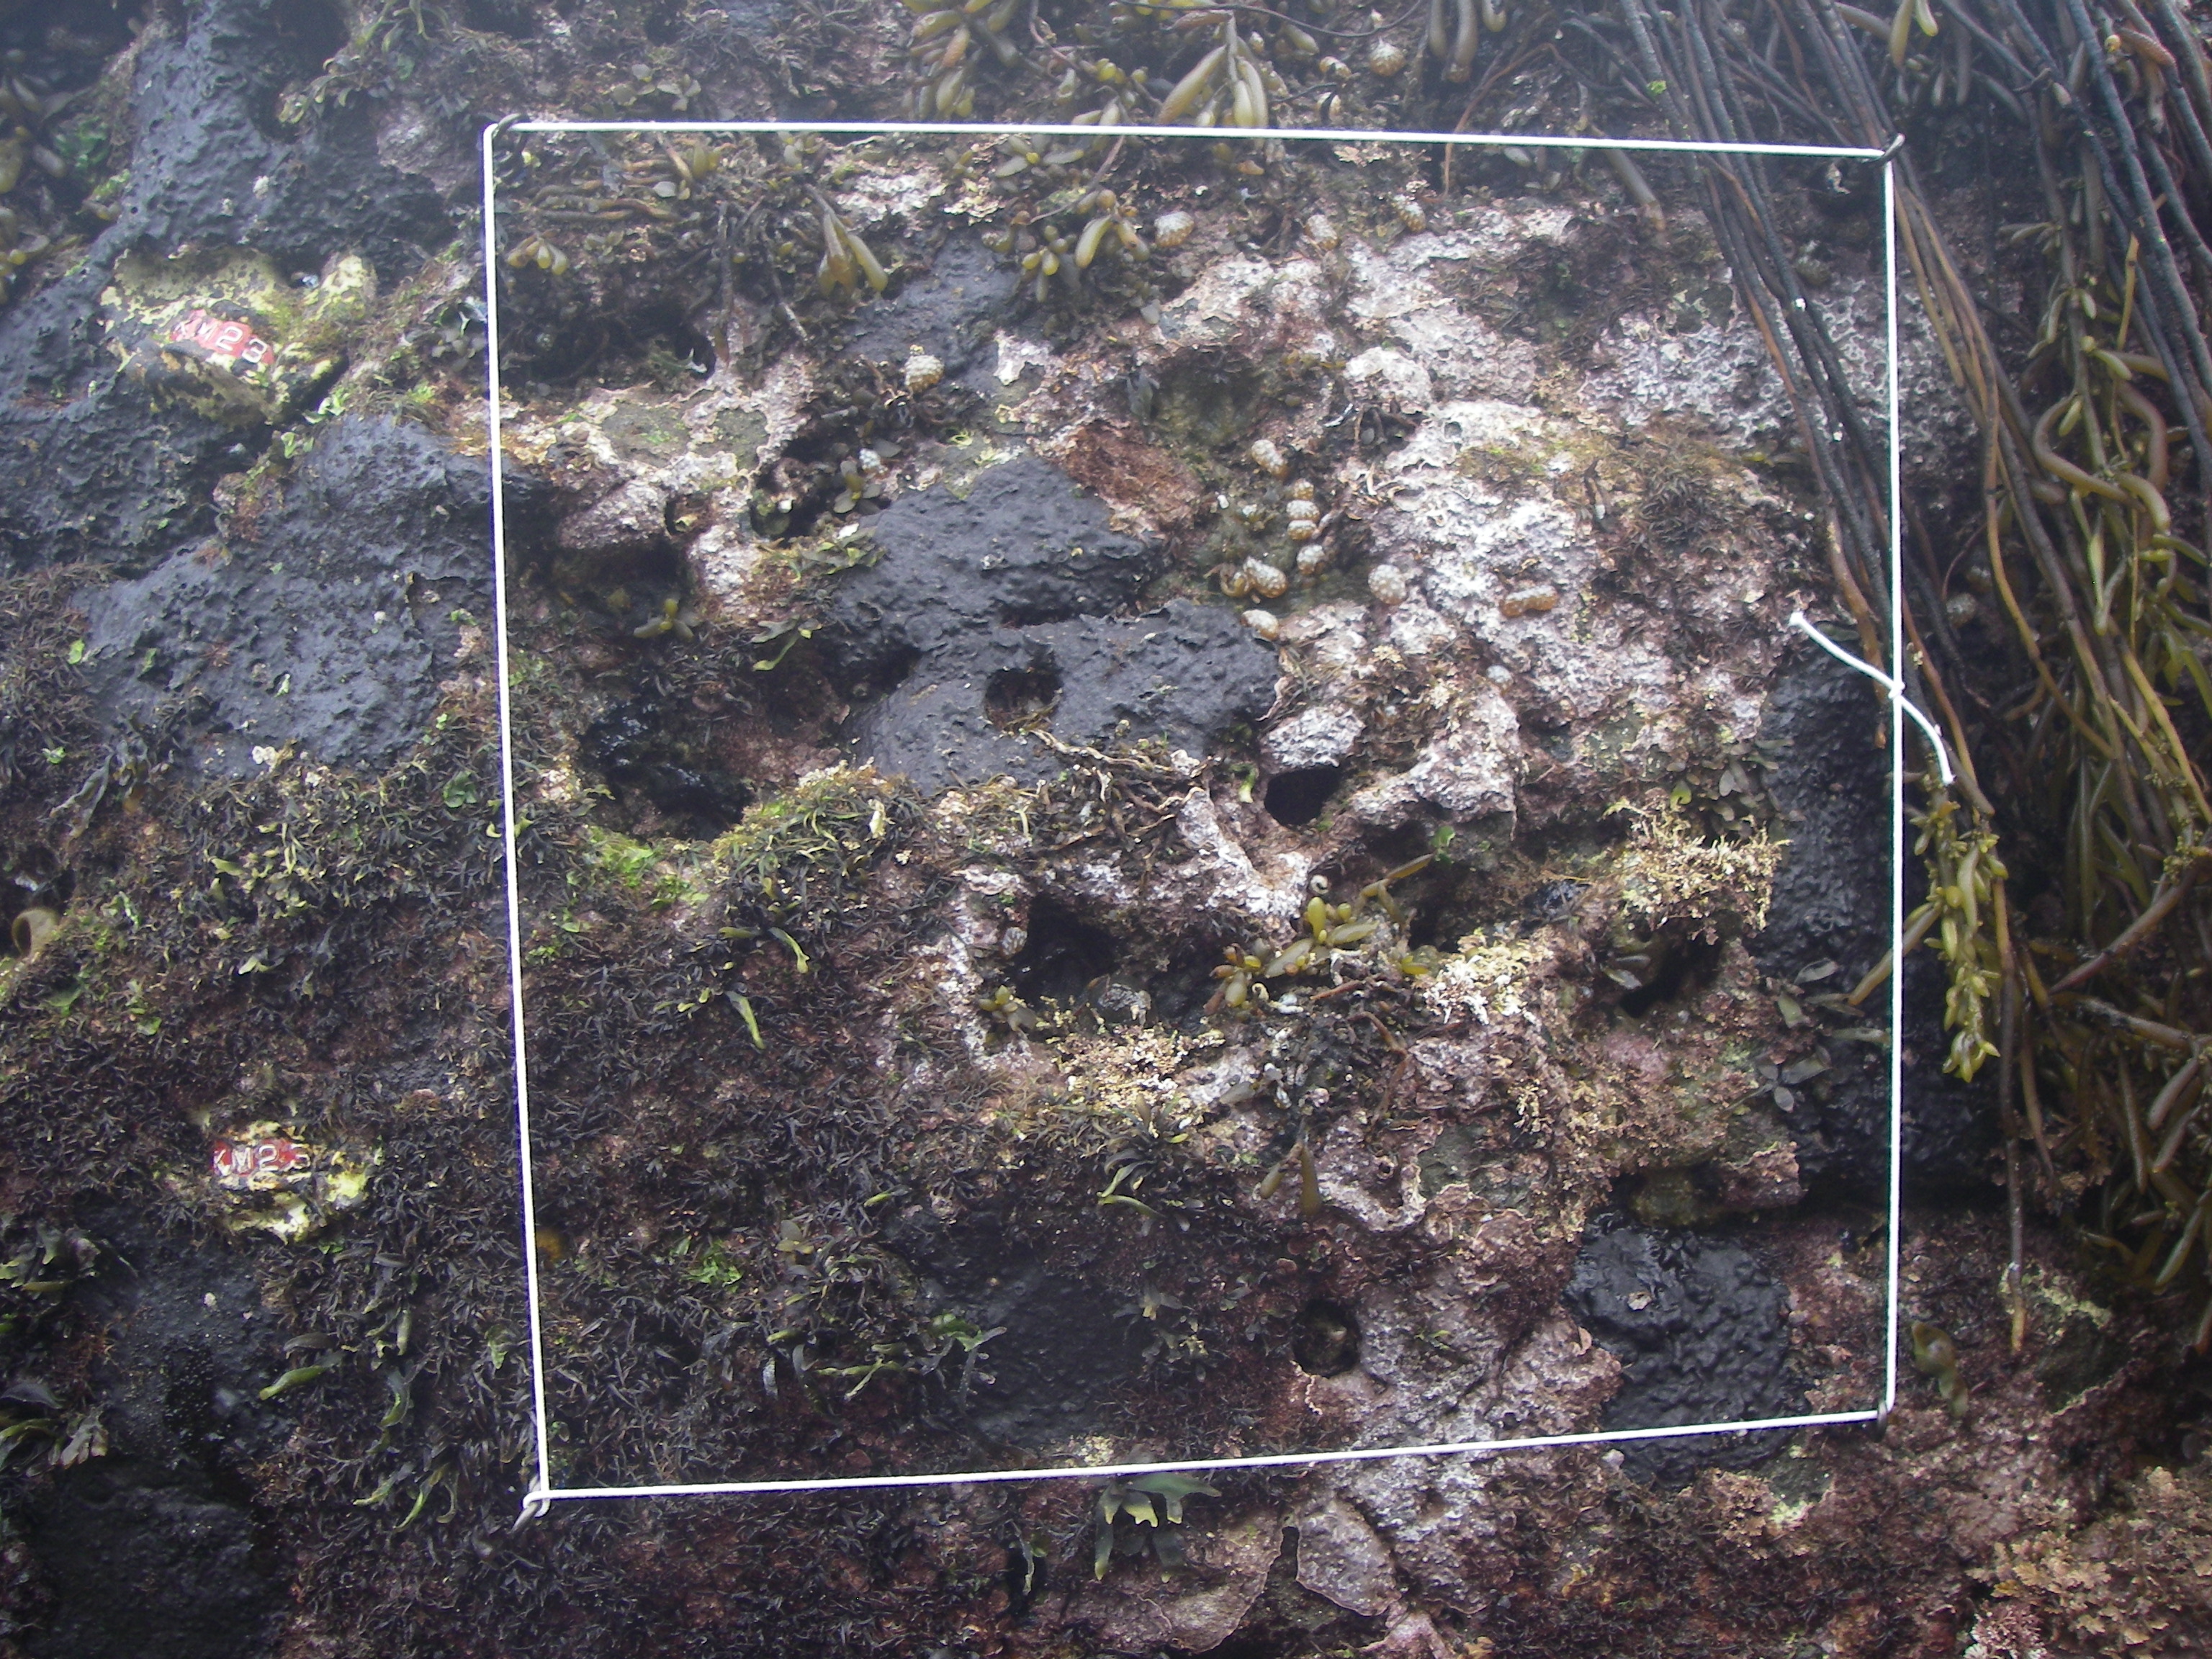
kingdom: Animalia
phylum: Arthropoda
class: Maxillopoda
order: Sessilia
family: Chthamalidae
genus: Chthamalus
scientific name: Chthamalus challengeri
